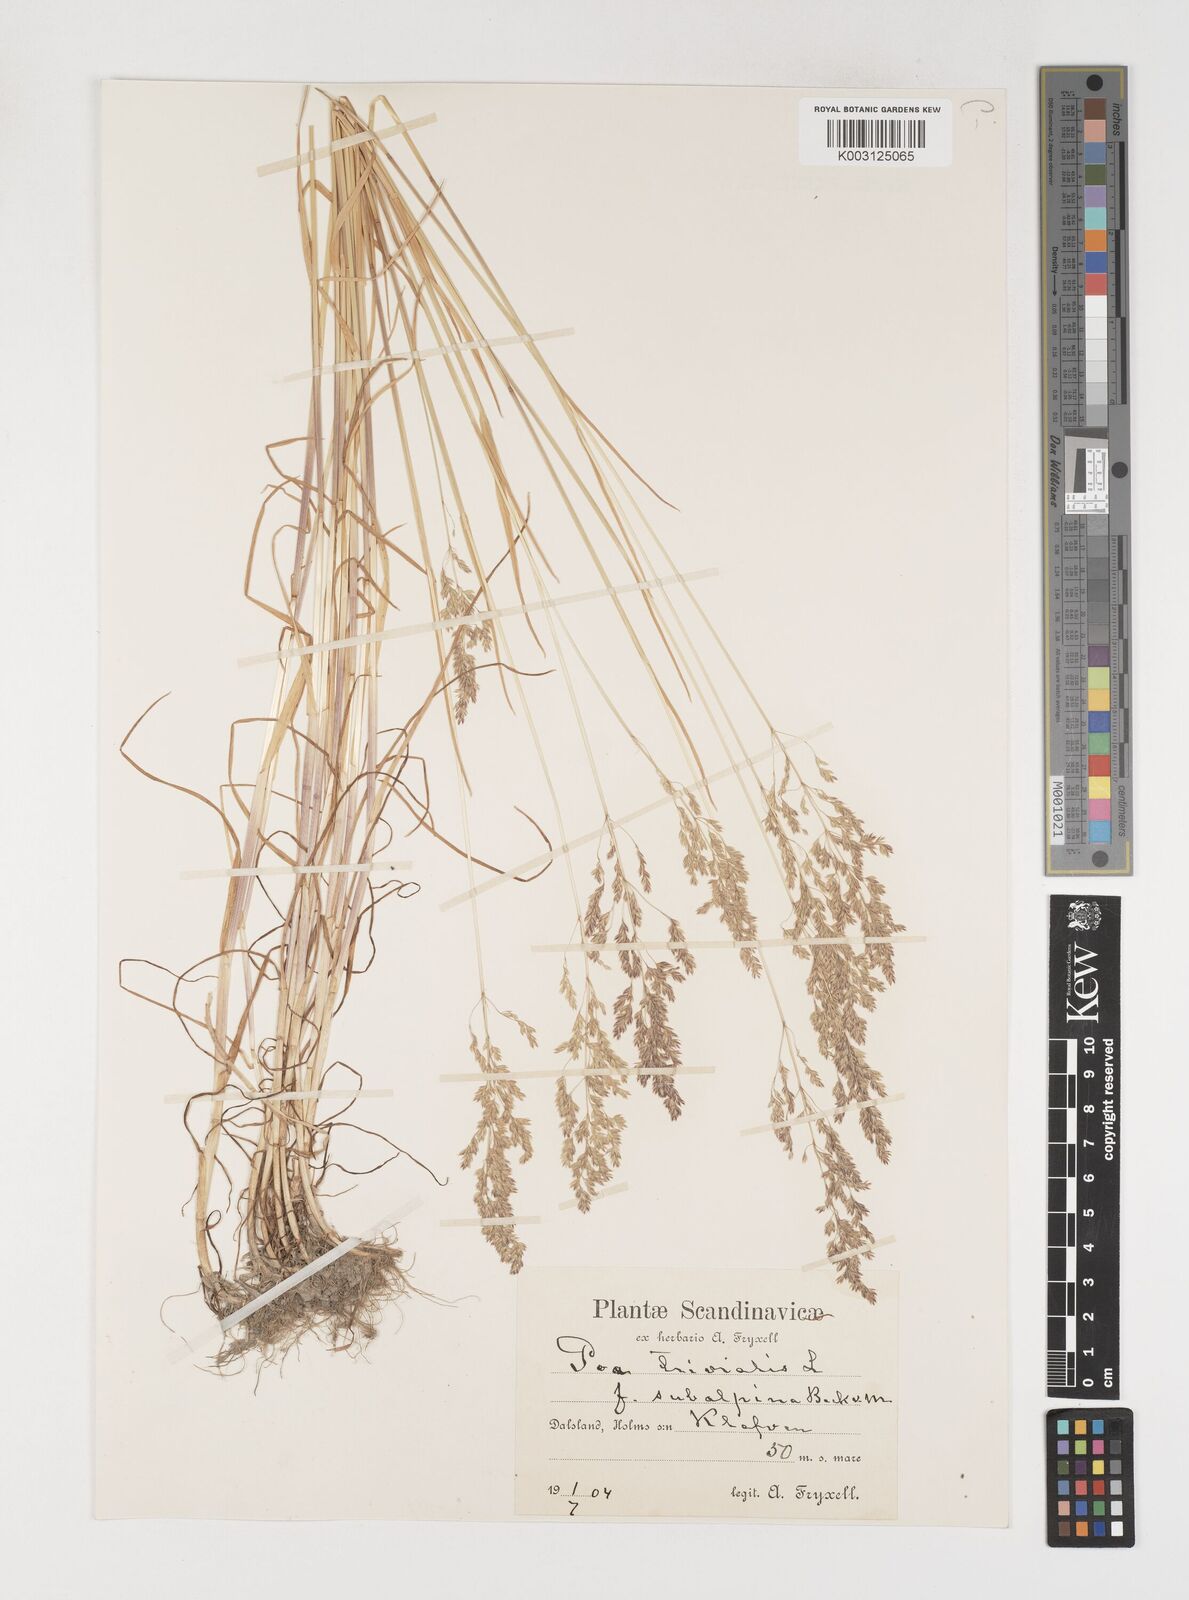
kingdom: Plantae
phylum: Tracheophyta
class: Liliopsida
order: Poales
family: Poaceae
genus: Poa
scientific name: Poa trivialis
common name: Rough bluegrass
